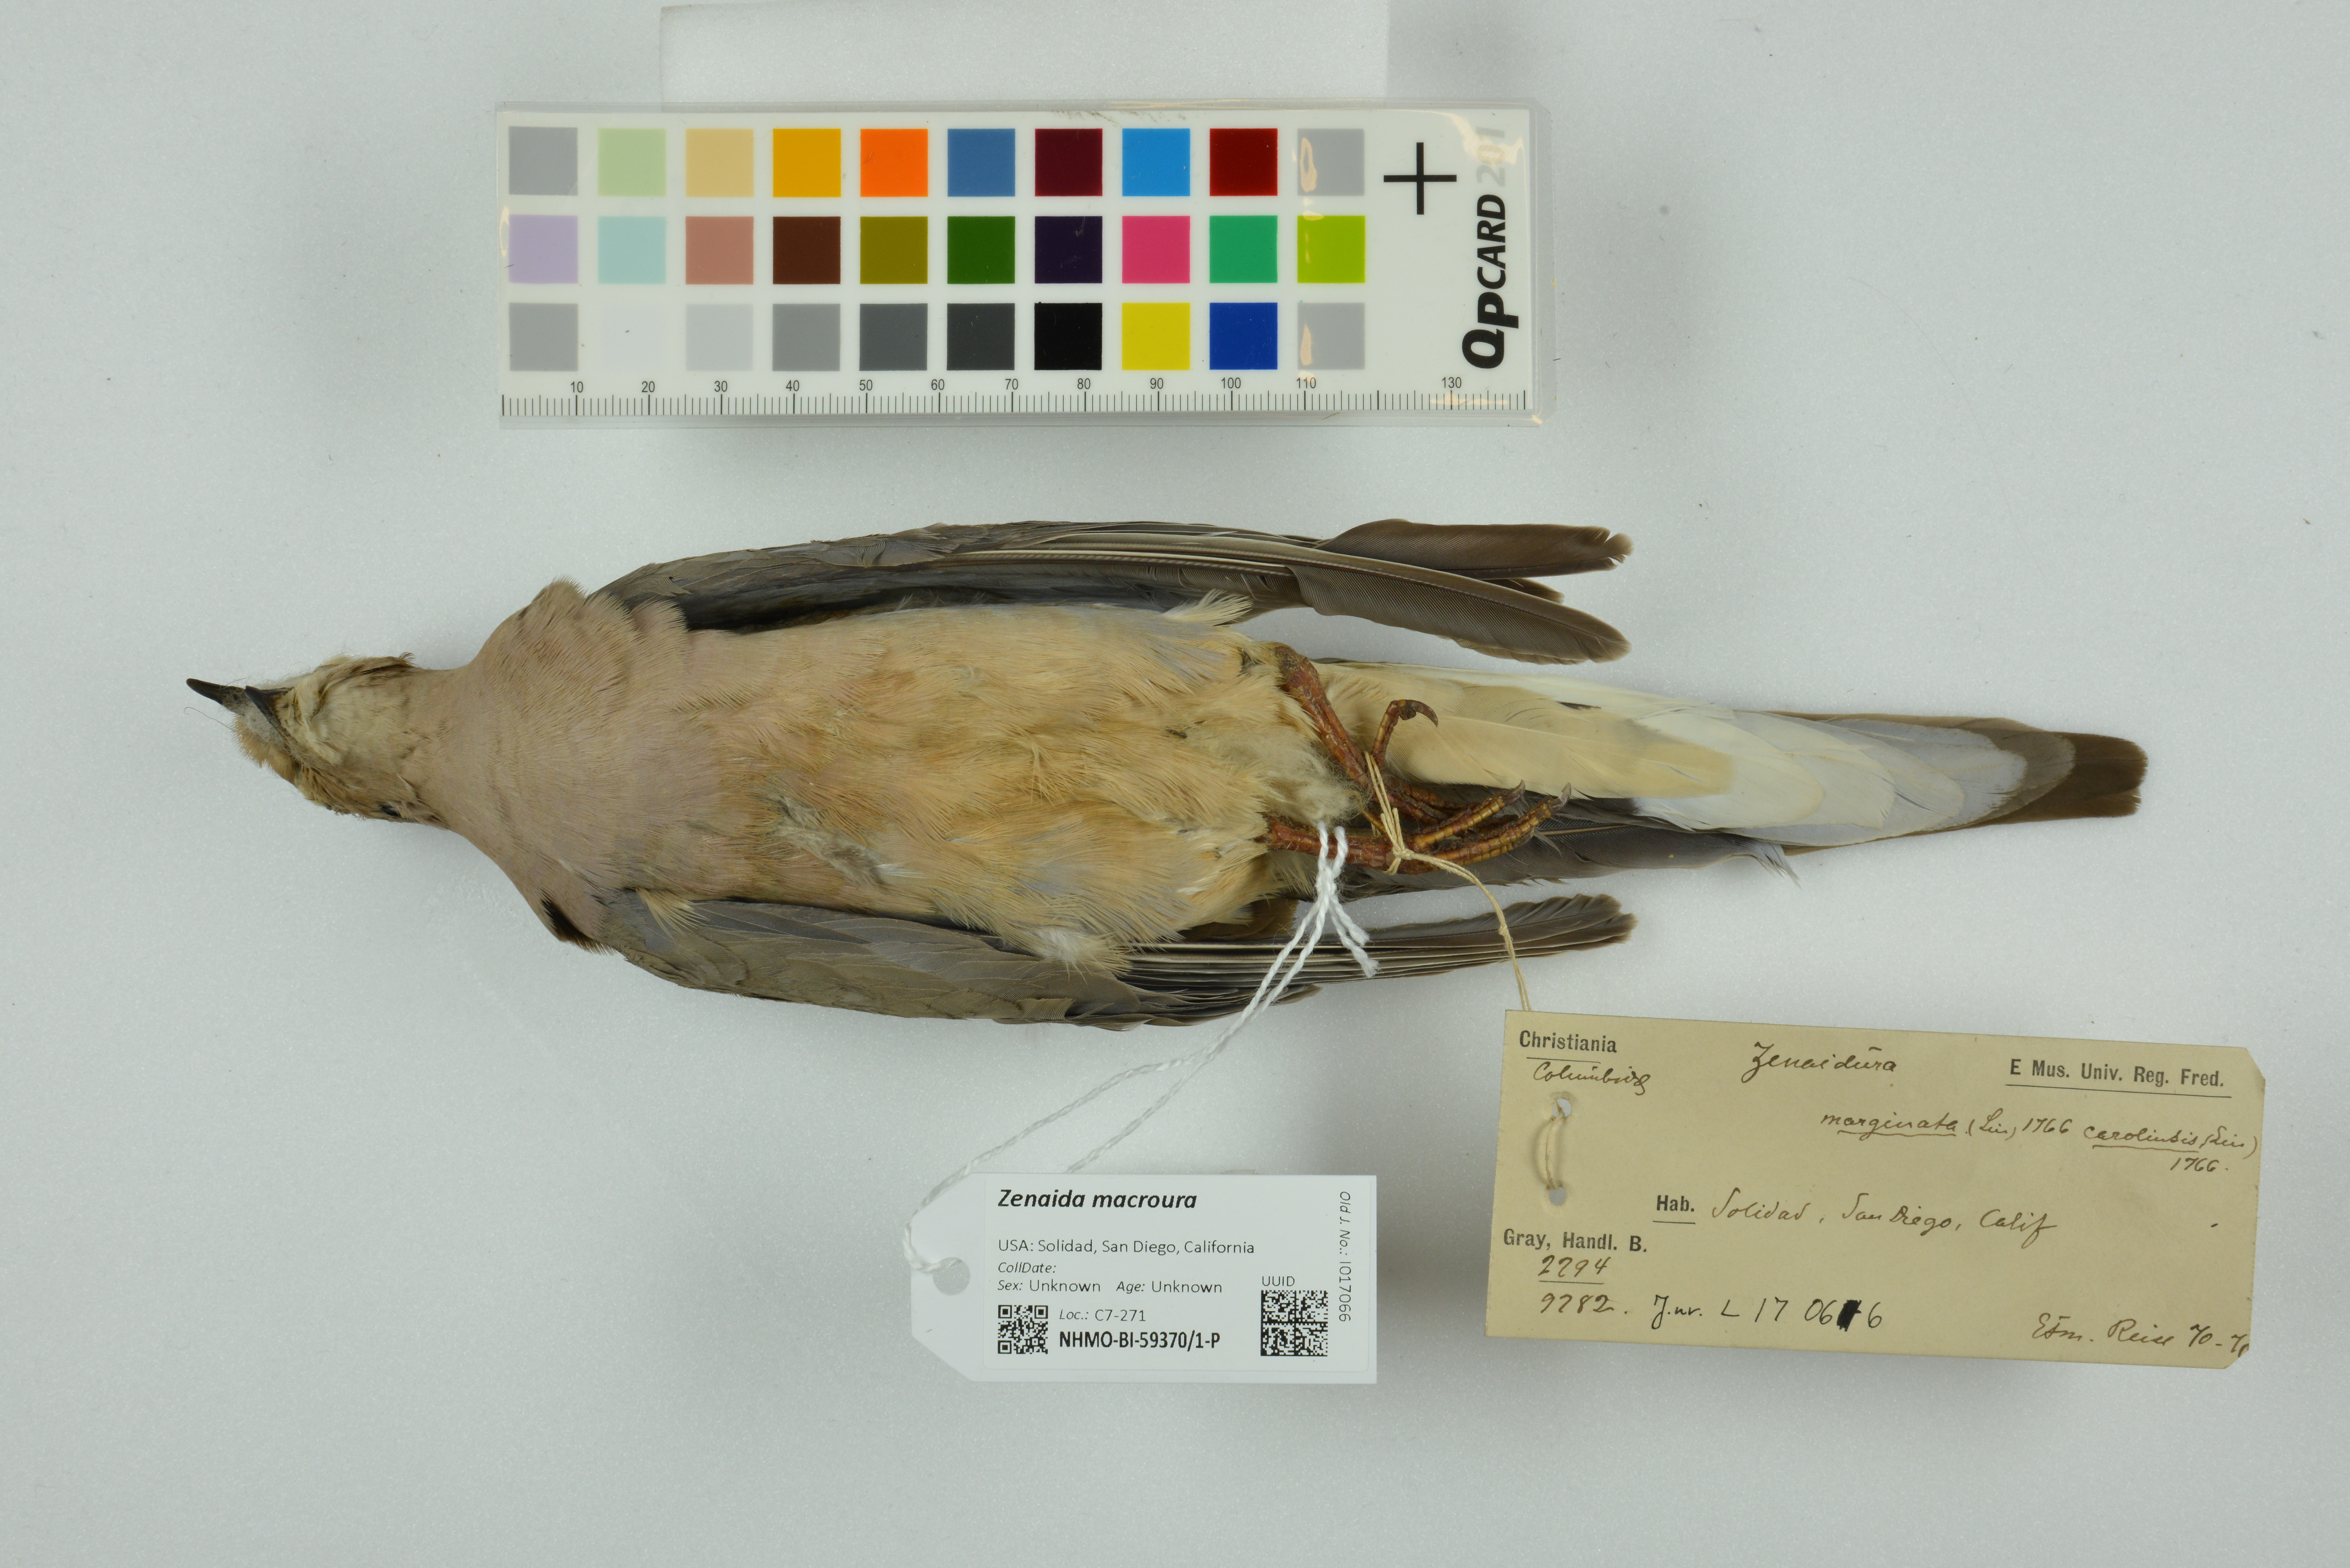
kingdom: Animalia
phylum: Chordata
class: Aves
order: Columbiformes
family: Columbidae
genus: Zenaida
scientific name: Zenaida macroura
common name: Mourning dove
